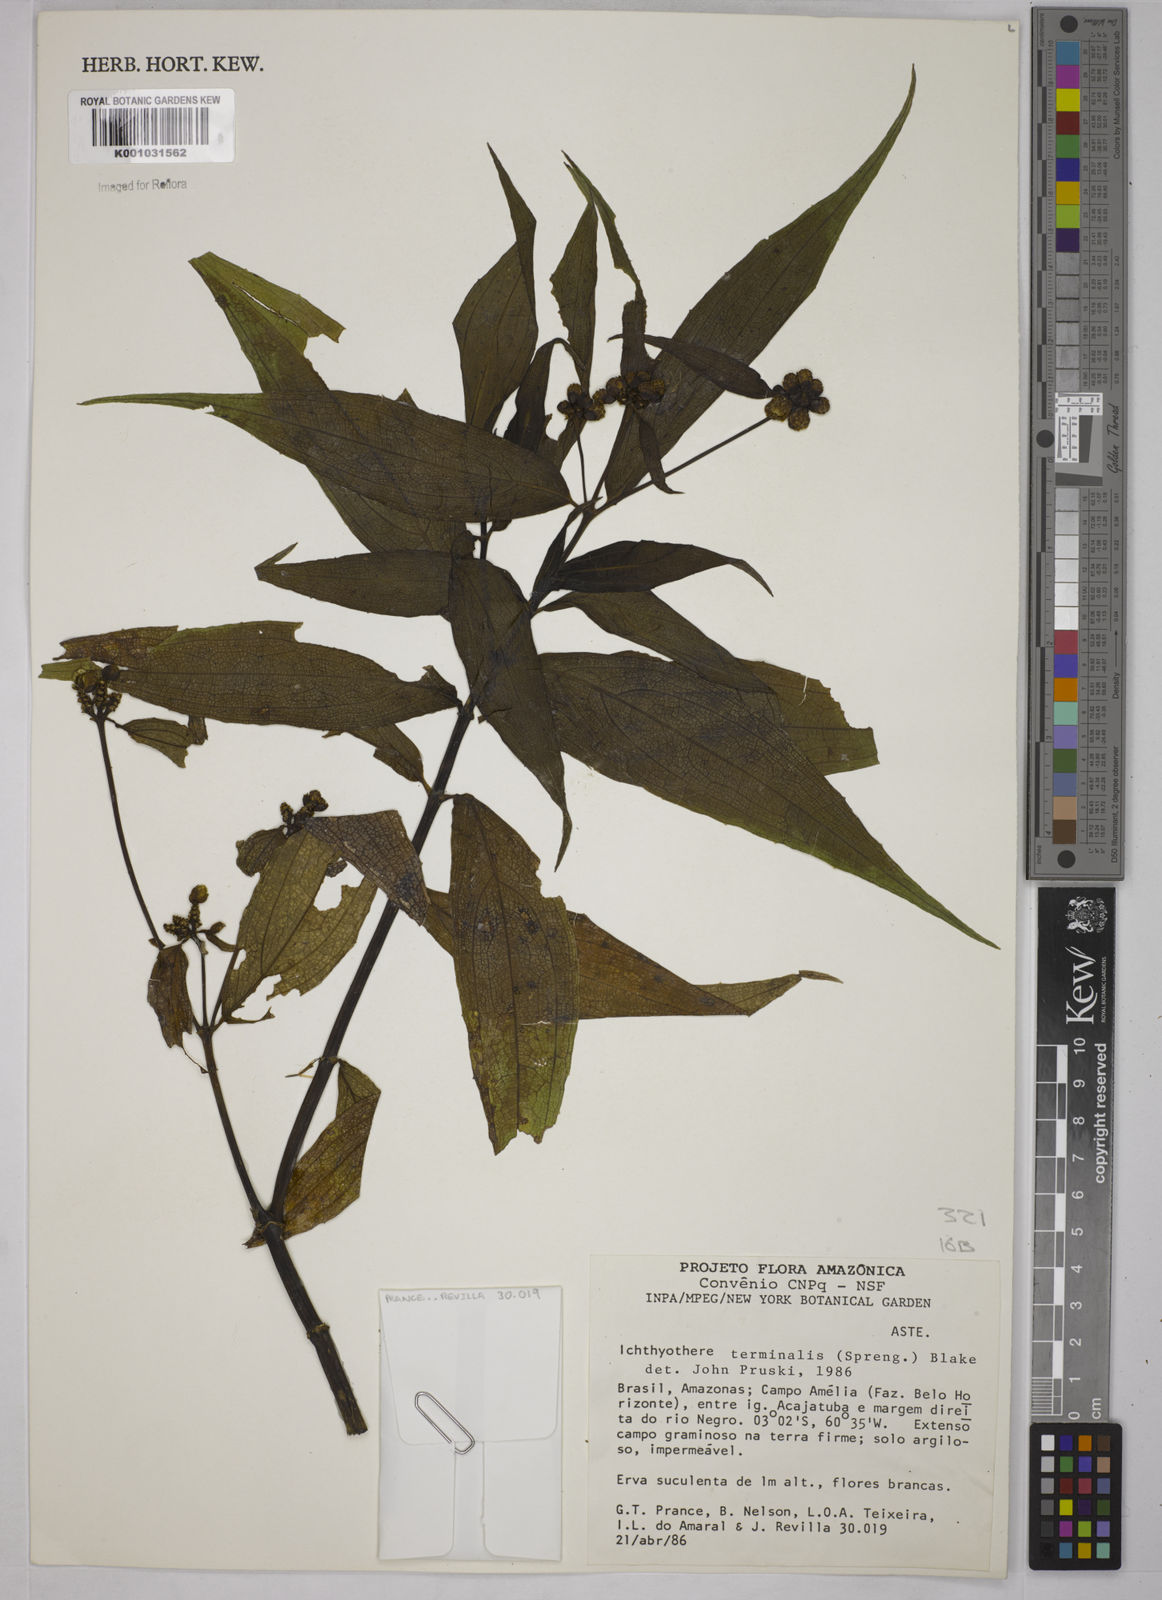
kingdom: Plantae
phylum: Tracheophyta
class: Magnoliopsida
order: Asterales
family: Asteraceae
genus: Ichthyothere
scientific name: Ichthyothere cunabi
